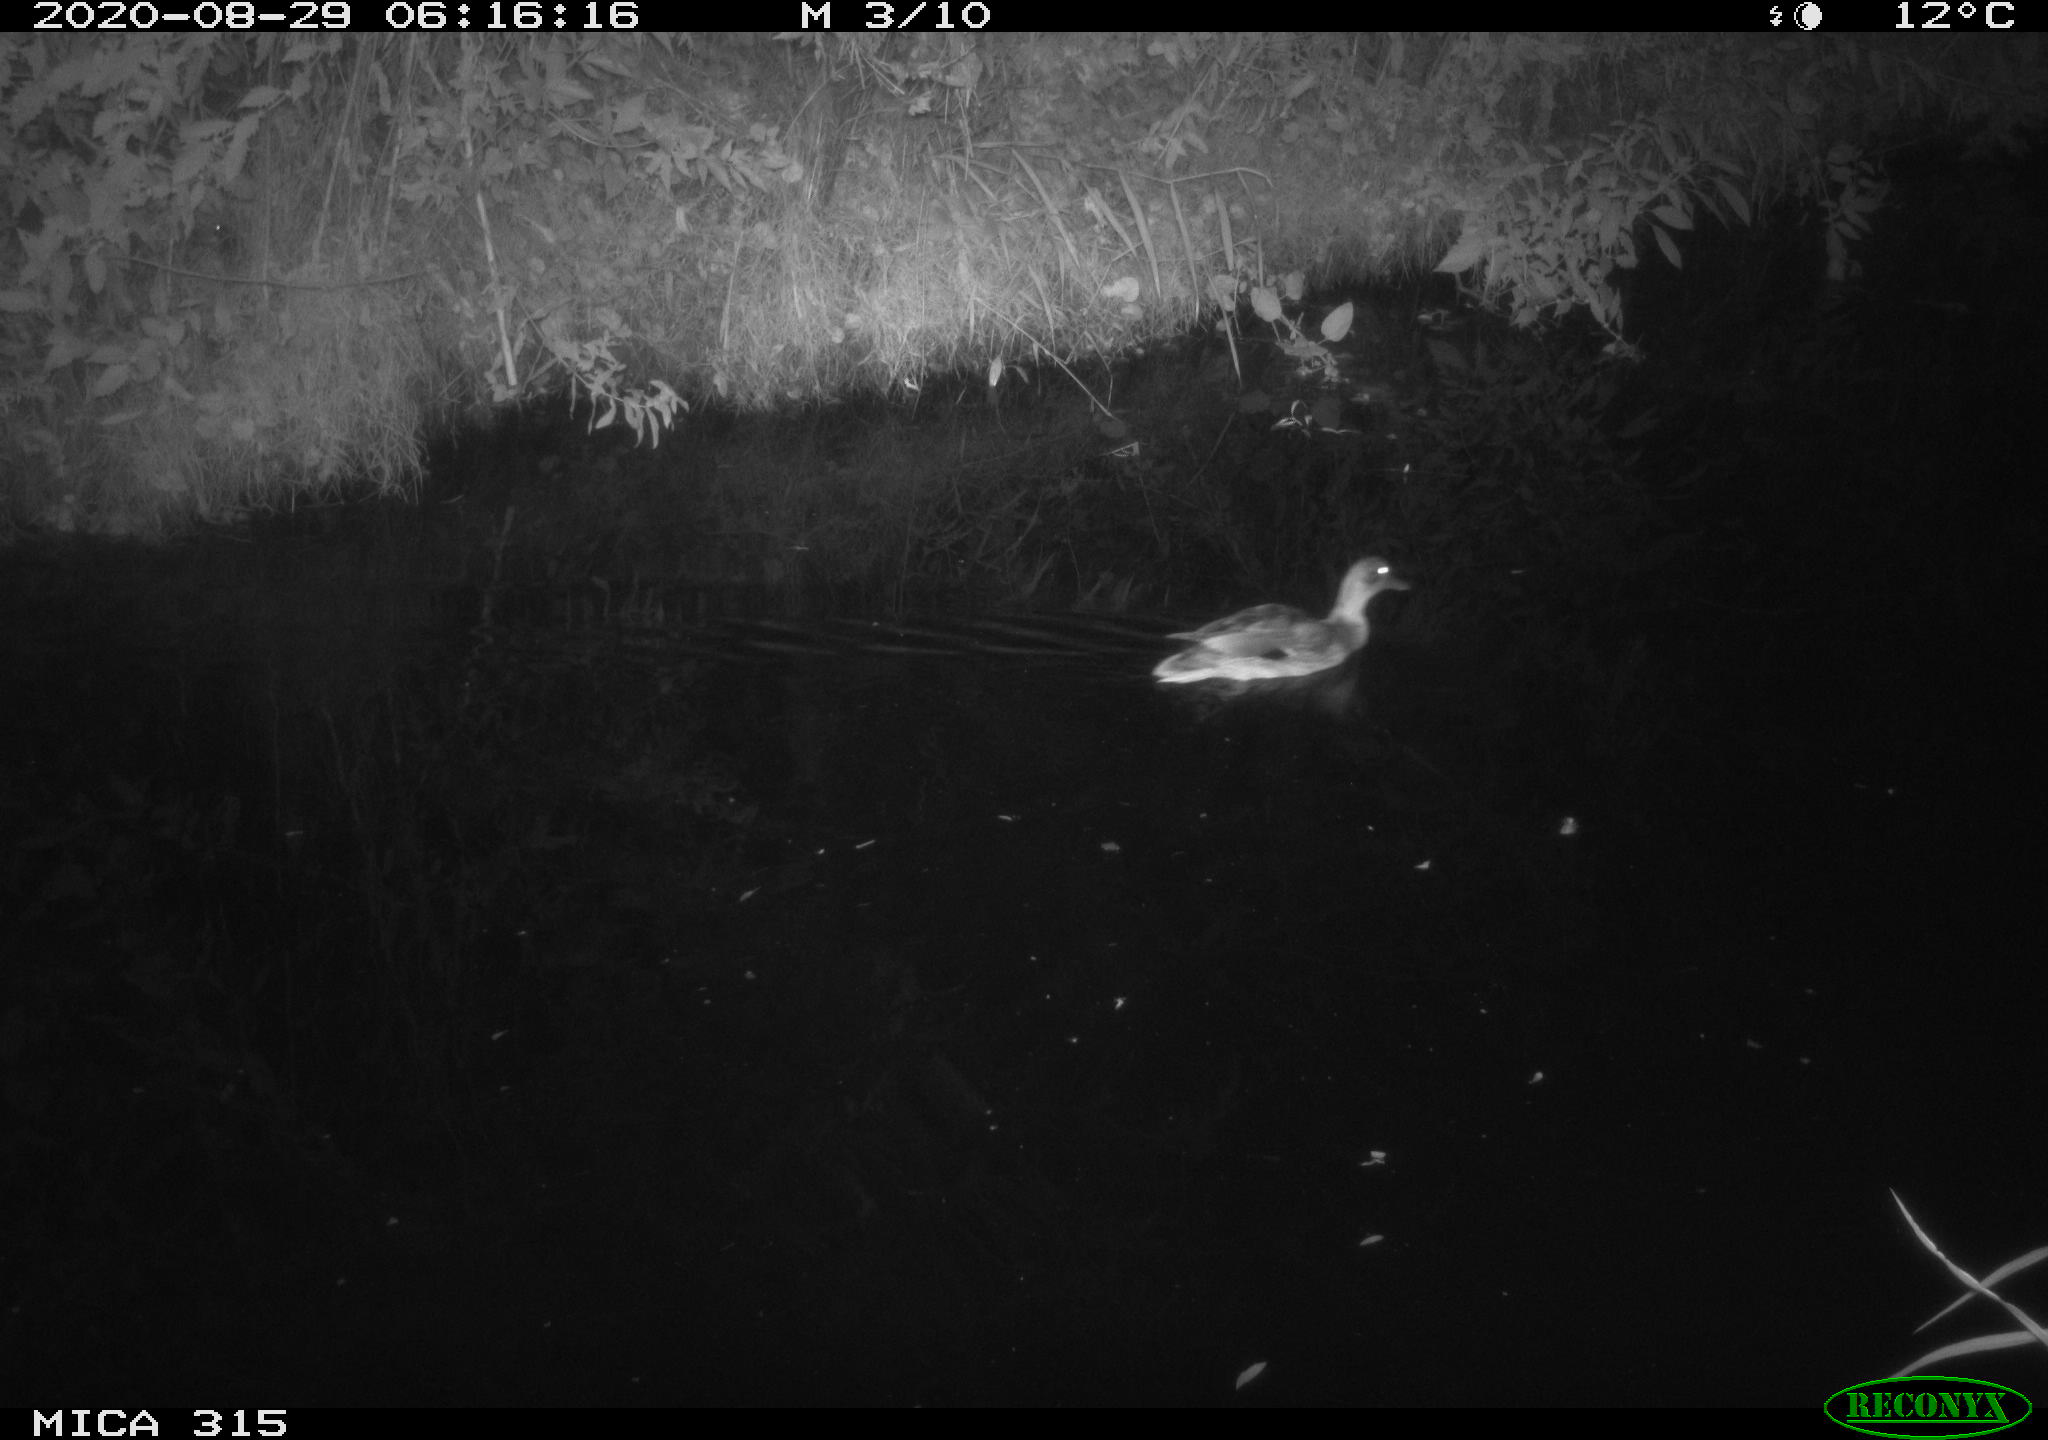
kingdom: Animalia
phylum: Chordata
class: Aves
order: Anseriformes
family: Anatidae
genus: Anas
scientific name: Anas platyrhynchos
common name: Mallard
